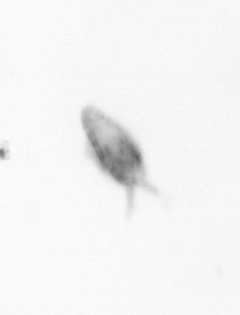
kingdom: Animalia
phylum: Arthropoda
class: Copepoda
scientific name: Copepoda
